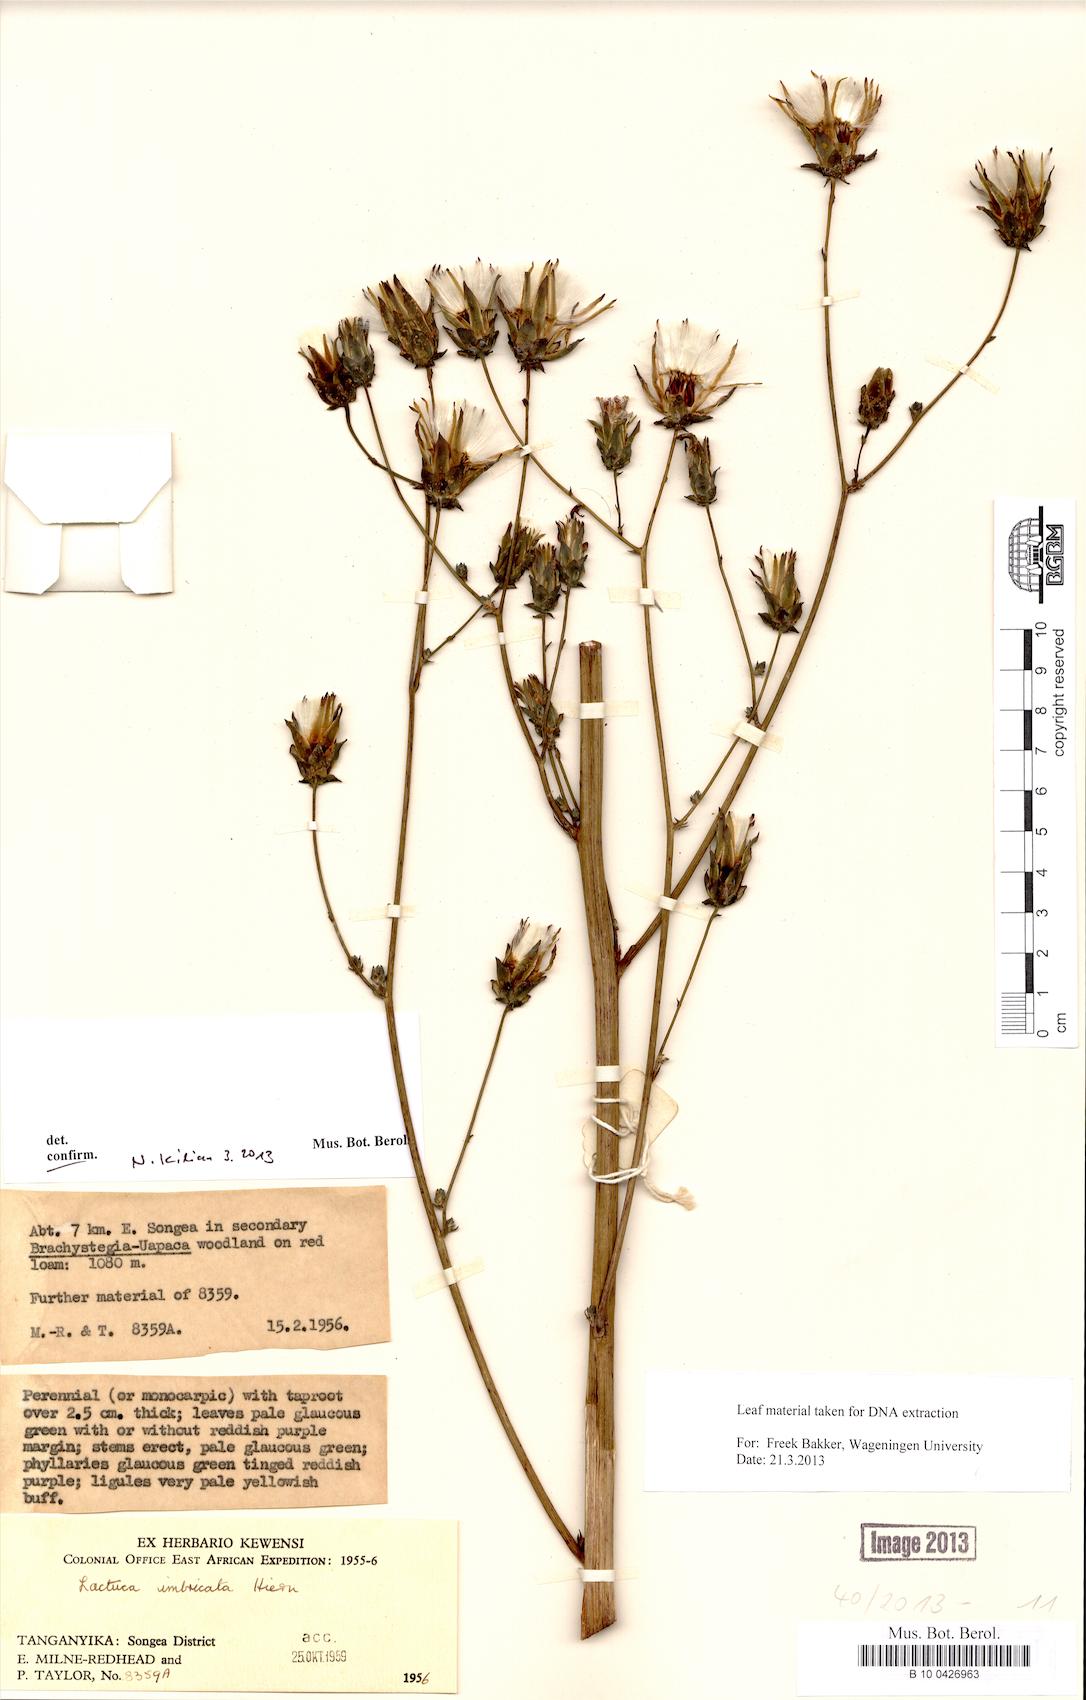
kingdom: Plantae
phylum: Tracheophyta
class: Magnoliopsida
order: Asterales
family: Asteraceae
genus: Lactuca
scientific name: Lactuca imbricata
